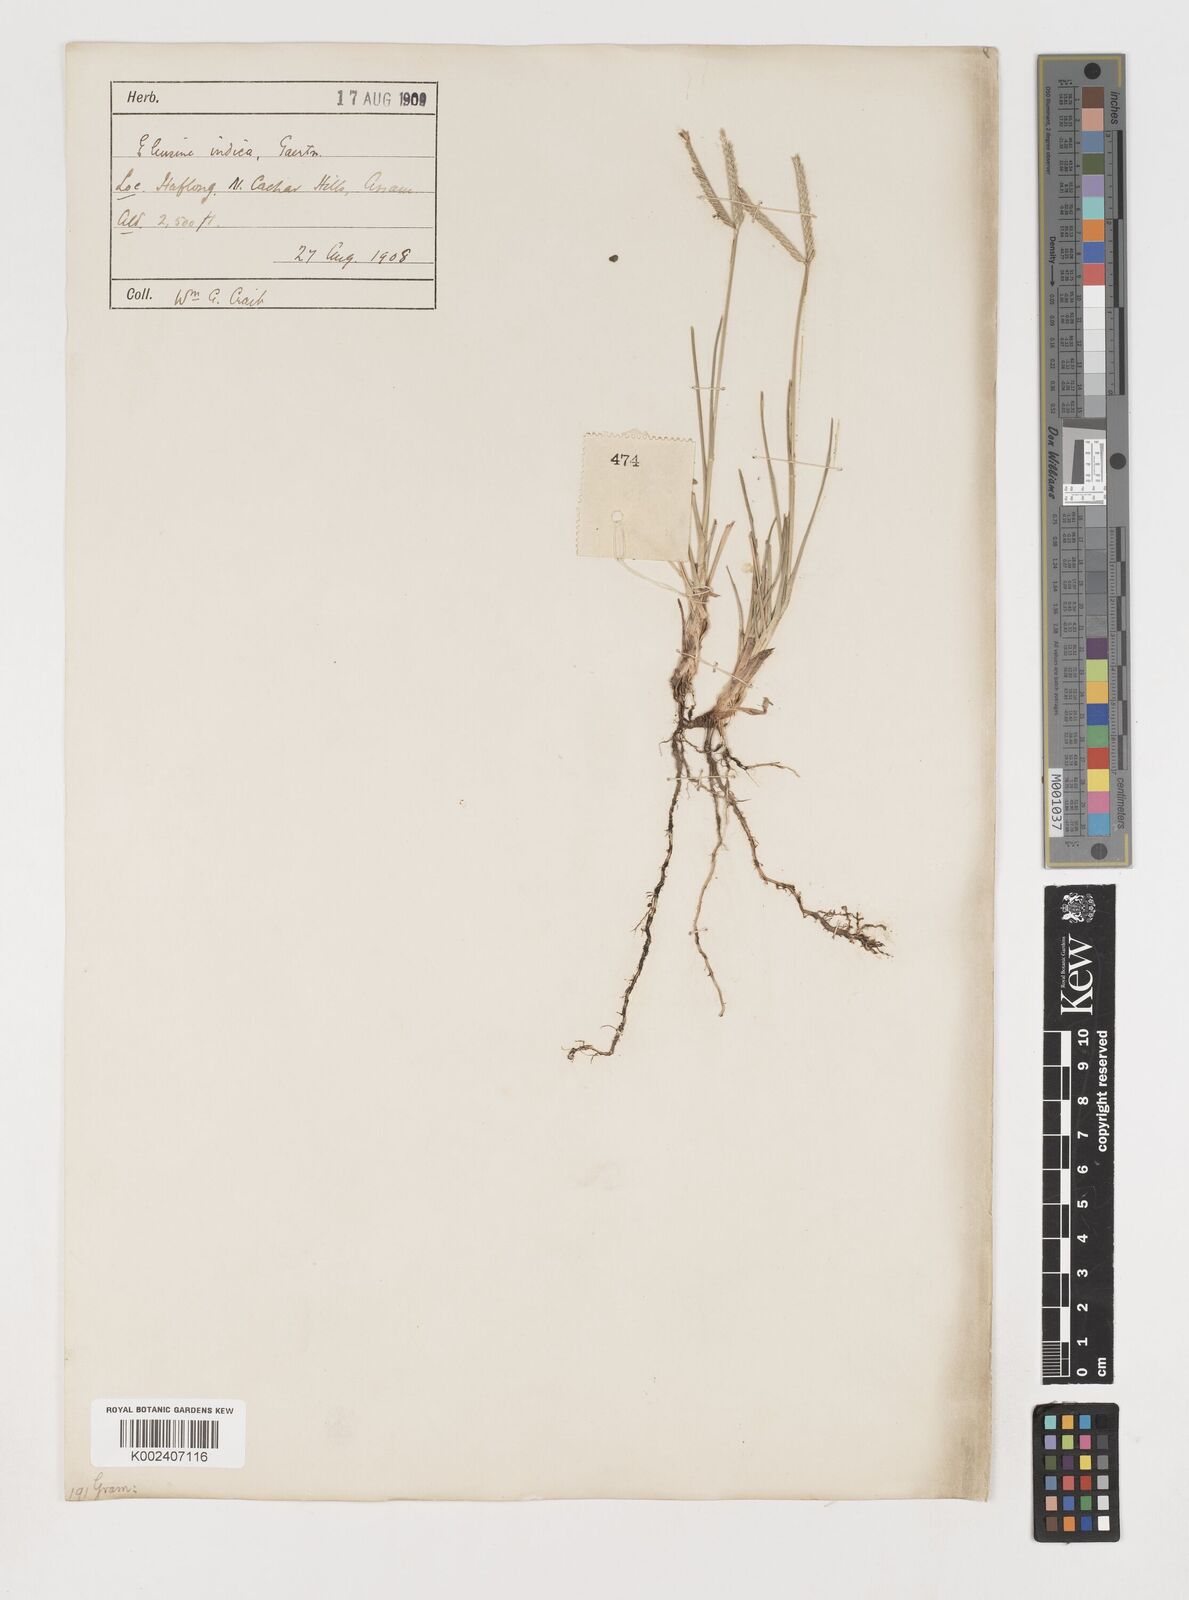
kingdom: Plantae
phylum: Tracheophyta
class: Liliopsida
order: Poales
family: Poaceae
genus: Eleusine
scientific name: Eleusine indica
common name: Yard-grass
